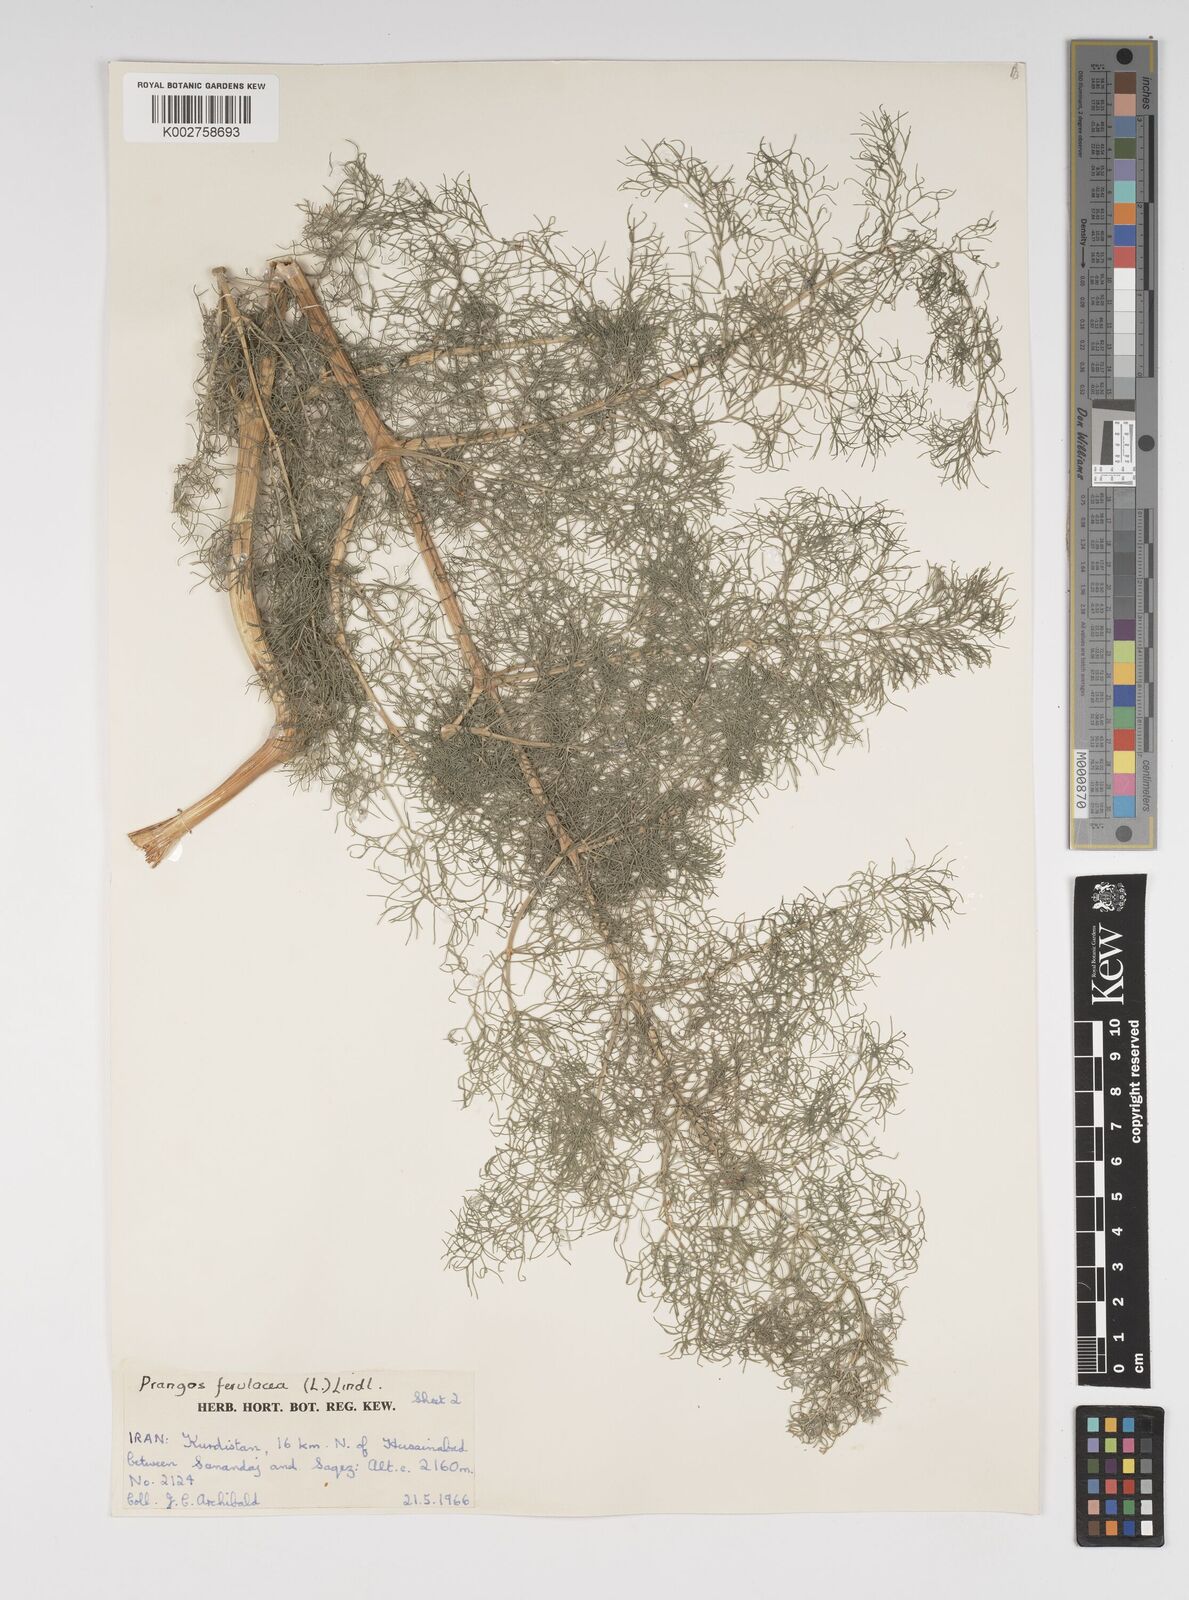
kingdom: Plantae
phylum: Tracheophyta
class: Magnoliopsida
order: Apiales
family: Apiaceae
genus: Prangos
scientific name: Prangos ferulacea
